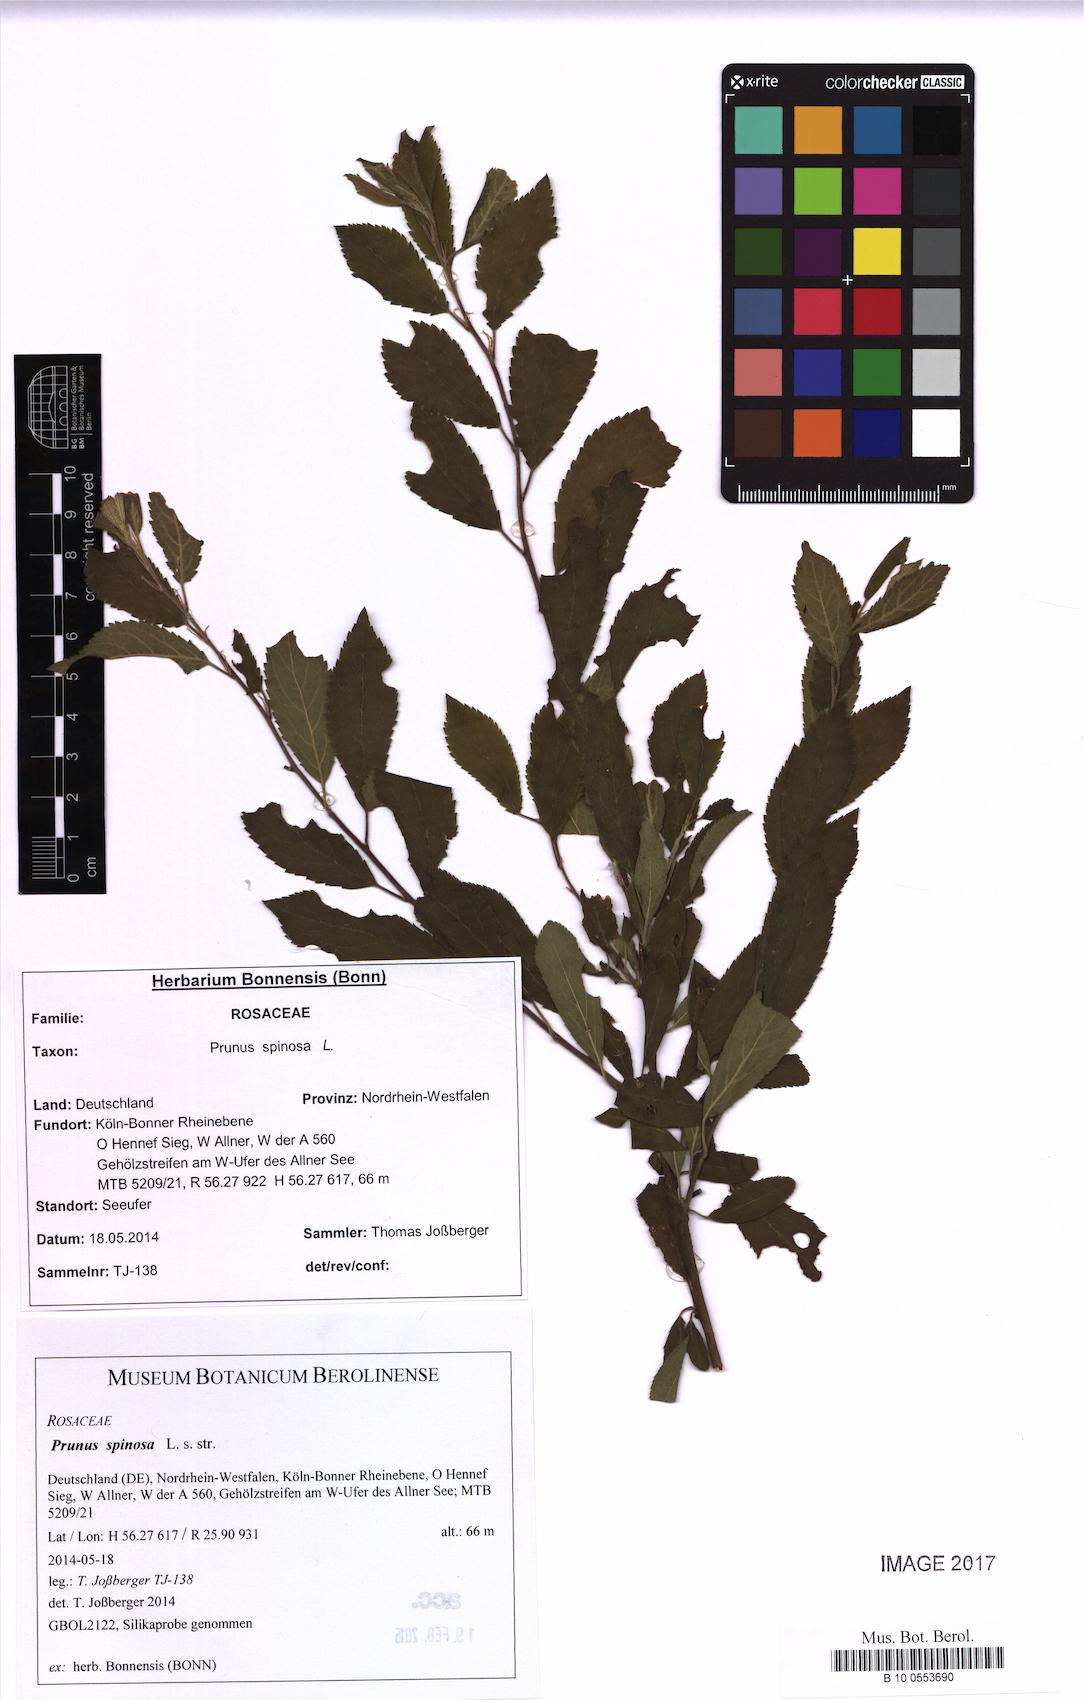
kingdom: Plantae
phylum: Tracheophyta
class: Magnoliopsida
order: Rosales
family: Rosaceae
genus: Prunus
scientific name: Prunus spinosa
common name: Blackthorn
